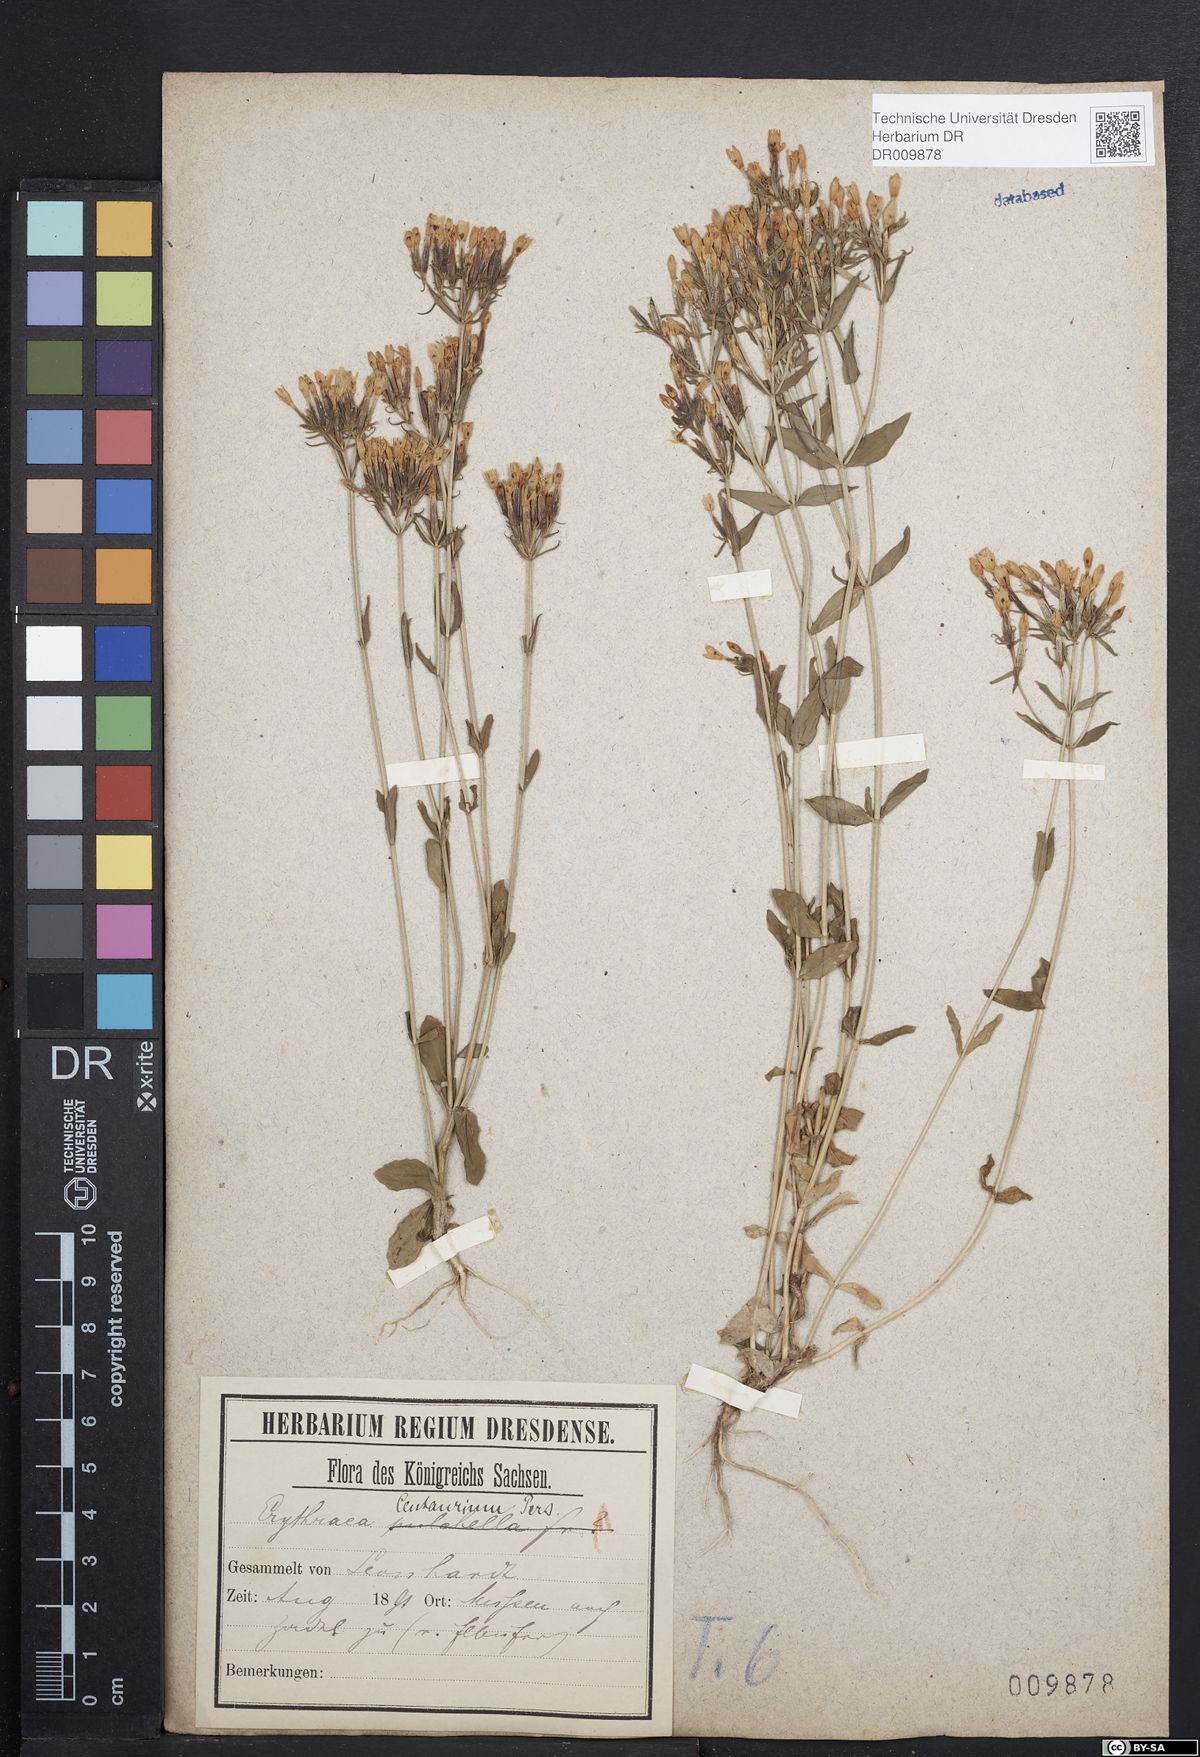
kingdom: Plantae
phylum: Tracheophyta
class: Magnoliopsida
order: Gentianales
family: Gentianaceae
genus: Centaurium
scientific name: Centaurium erythraea
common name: Common centaury
